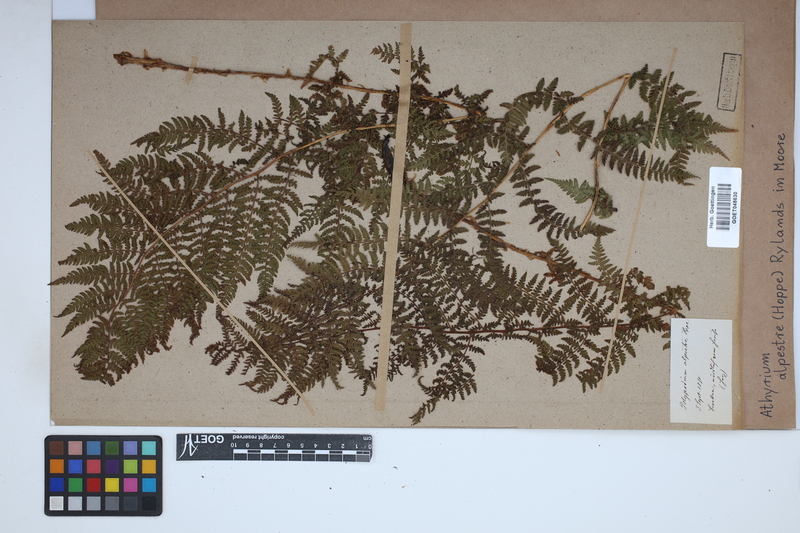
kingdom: Plantae
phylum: Tracheophyta
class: Polypodiopsida
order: Polypodiales
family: Athyriaceae
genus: Pseudathyrium
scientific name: Pseudathyrium alpestre
